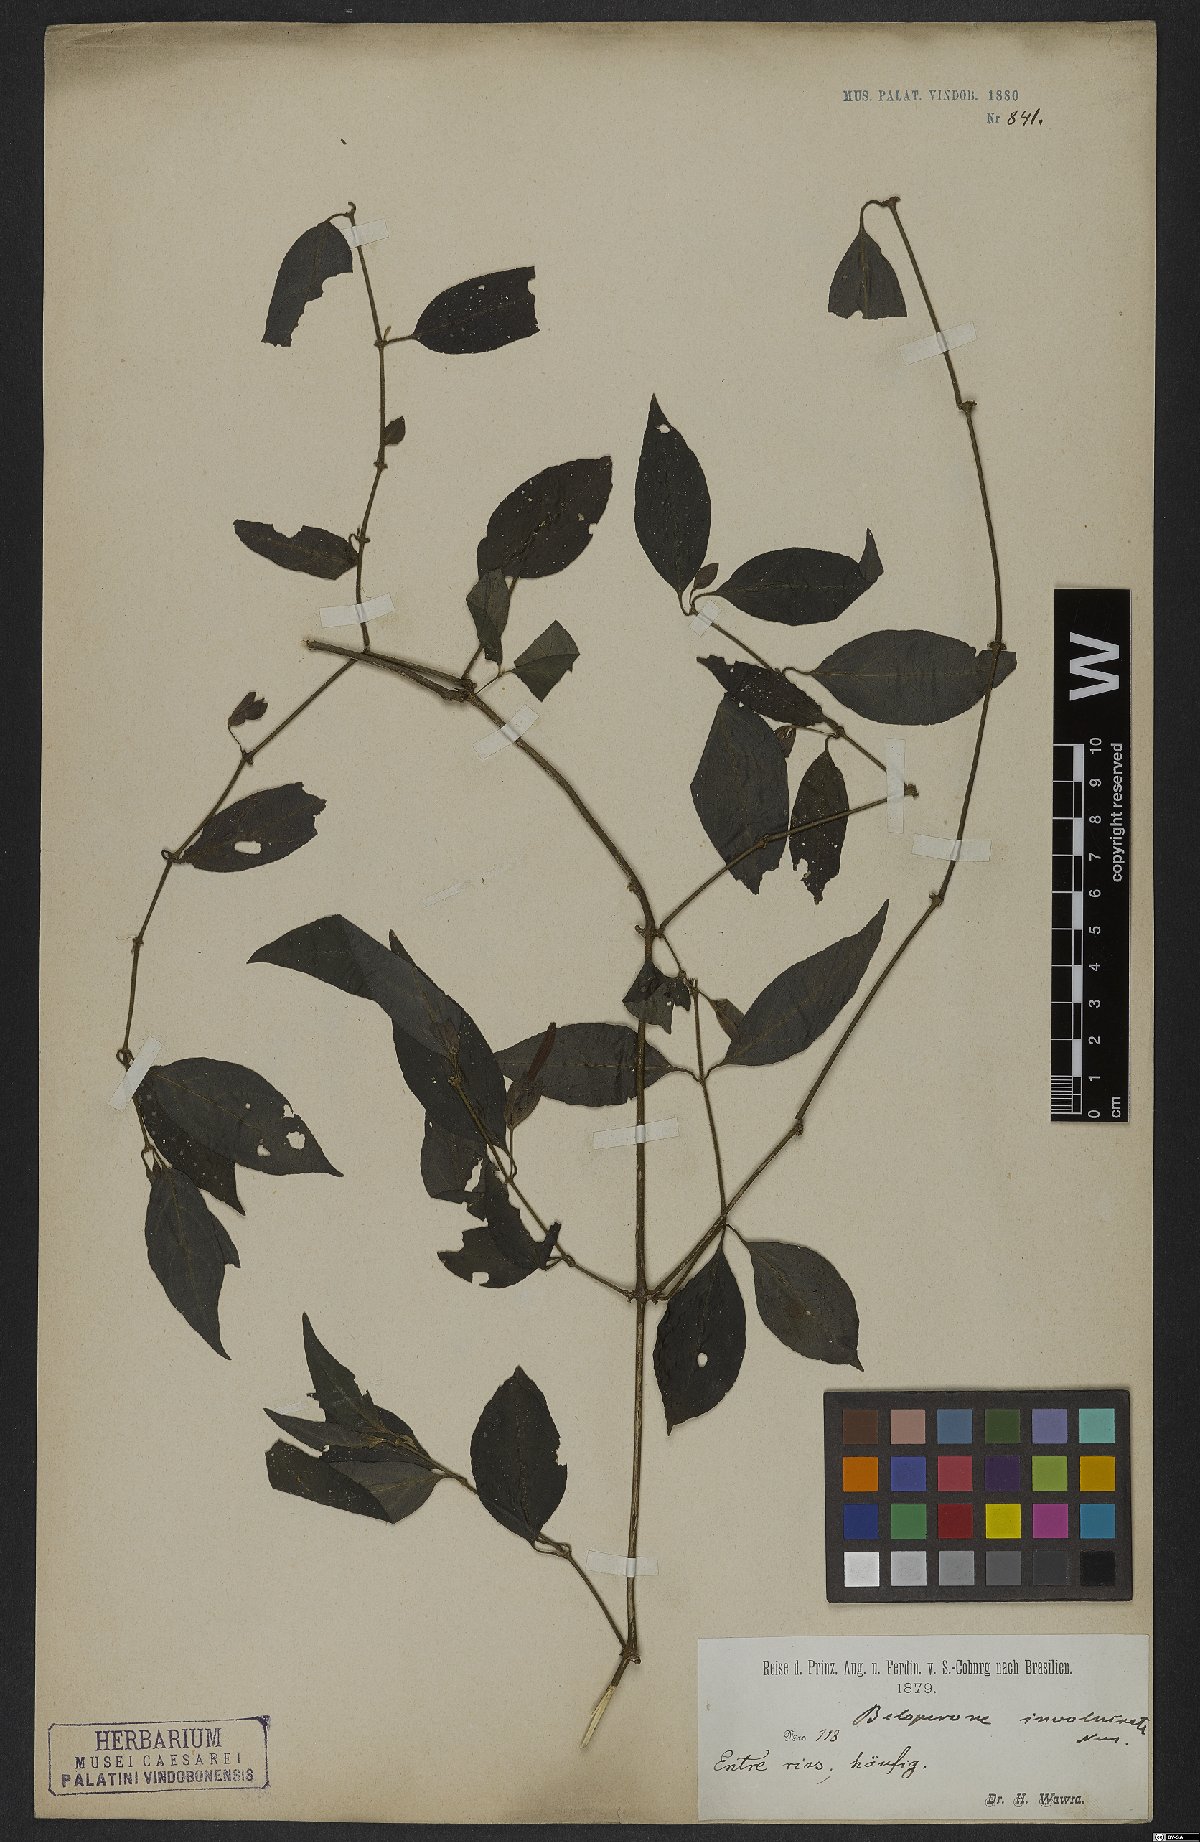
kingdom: Plantae
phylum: Tracheophyta
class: Magnoliopsida
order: Lamiales
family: Acanthaceae
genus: Justicia
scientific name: Justicia involucrata
